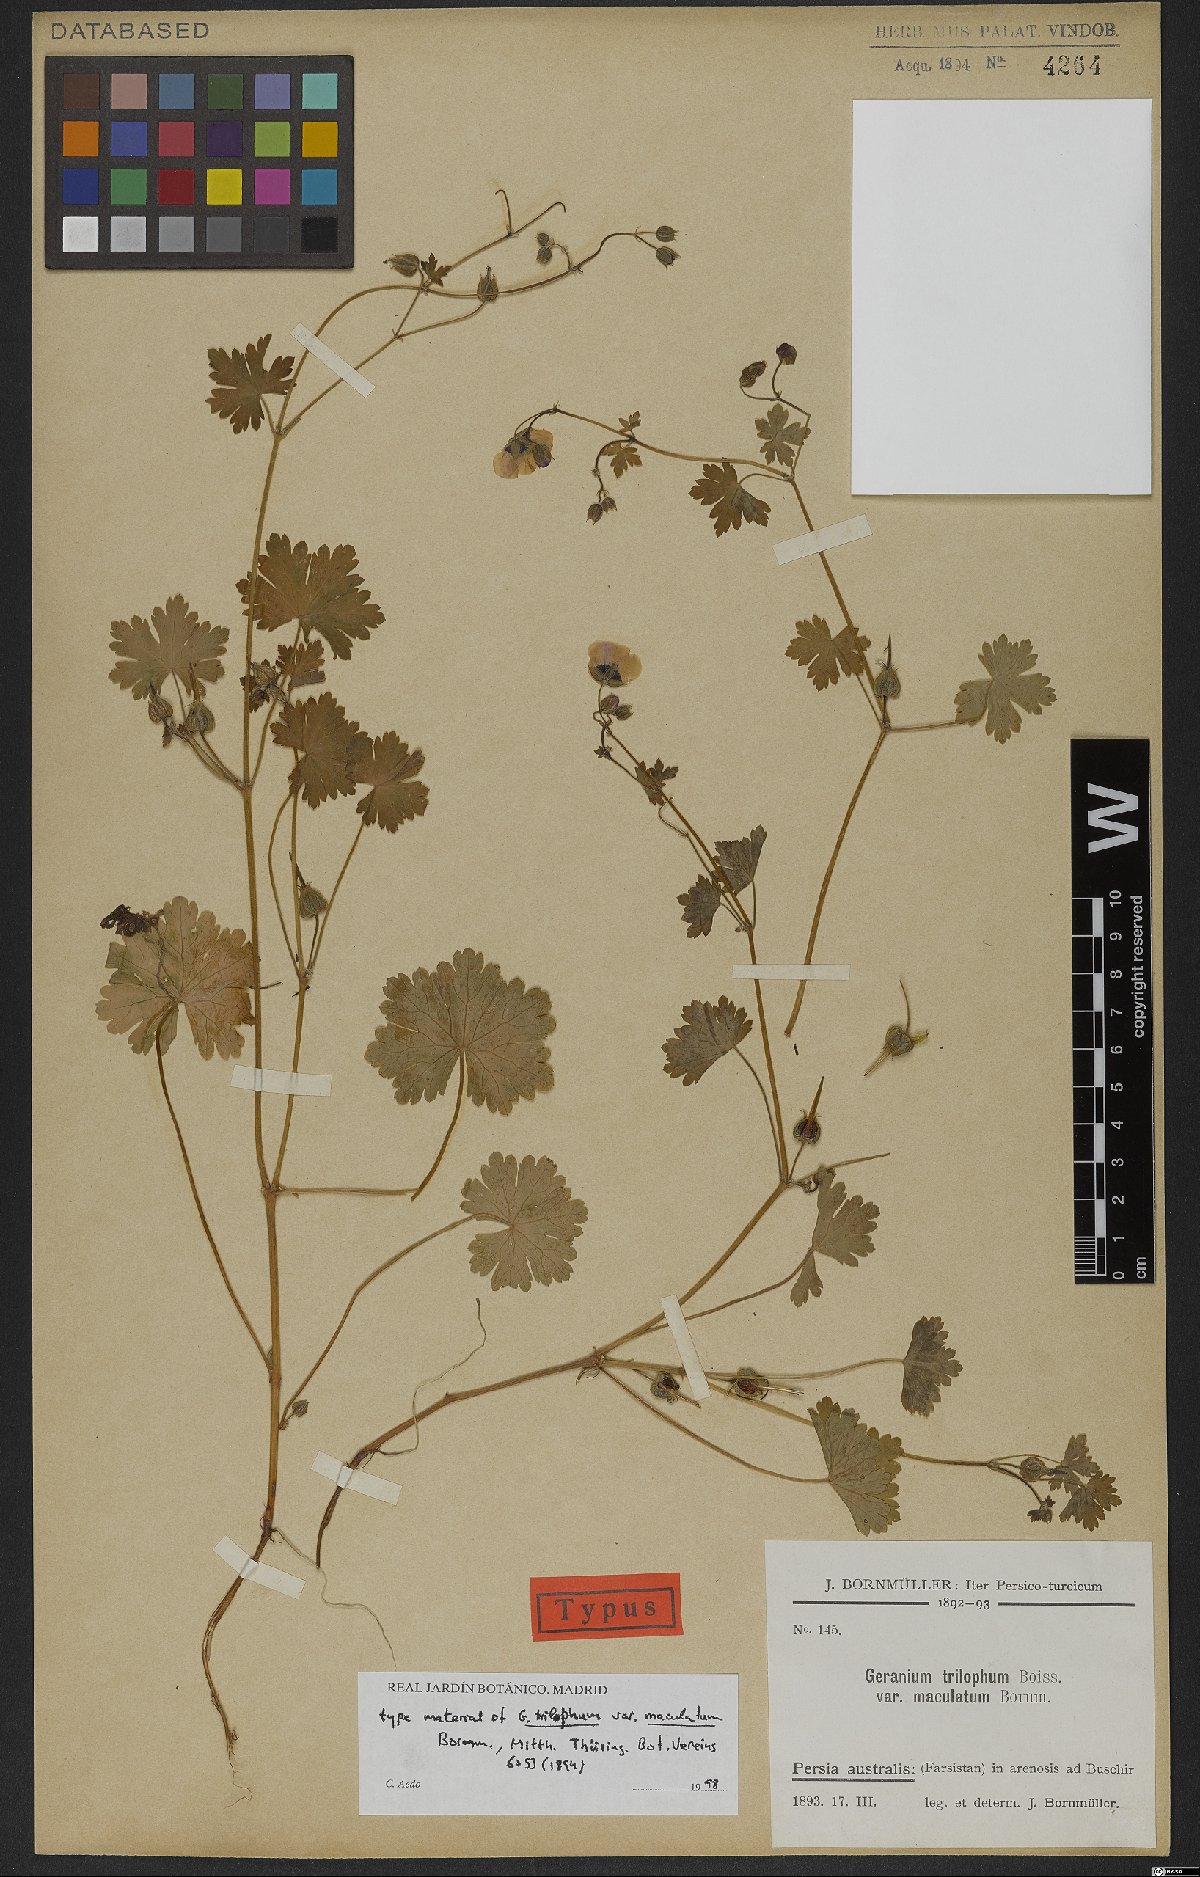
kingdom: Plantae
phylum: Tracheophyta
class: Magnoliopsida
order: Geraniales
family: Geraniaceae
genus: Geranium
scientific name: Geranium trilophum
